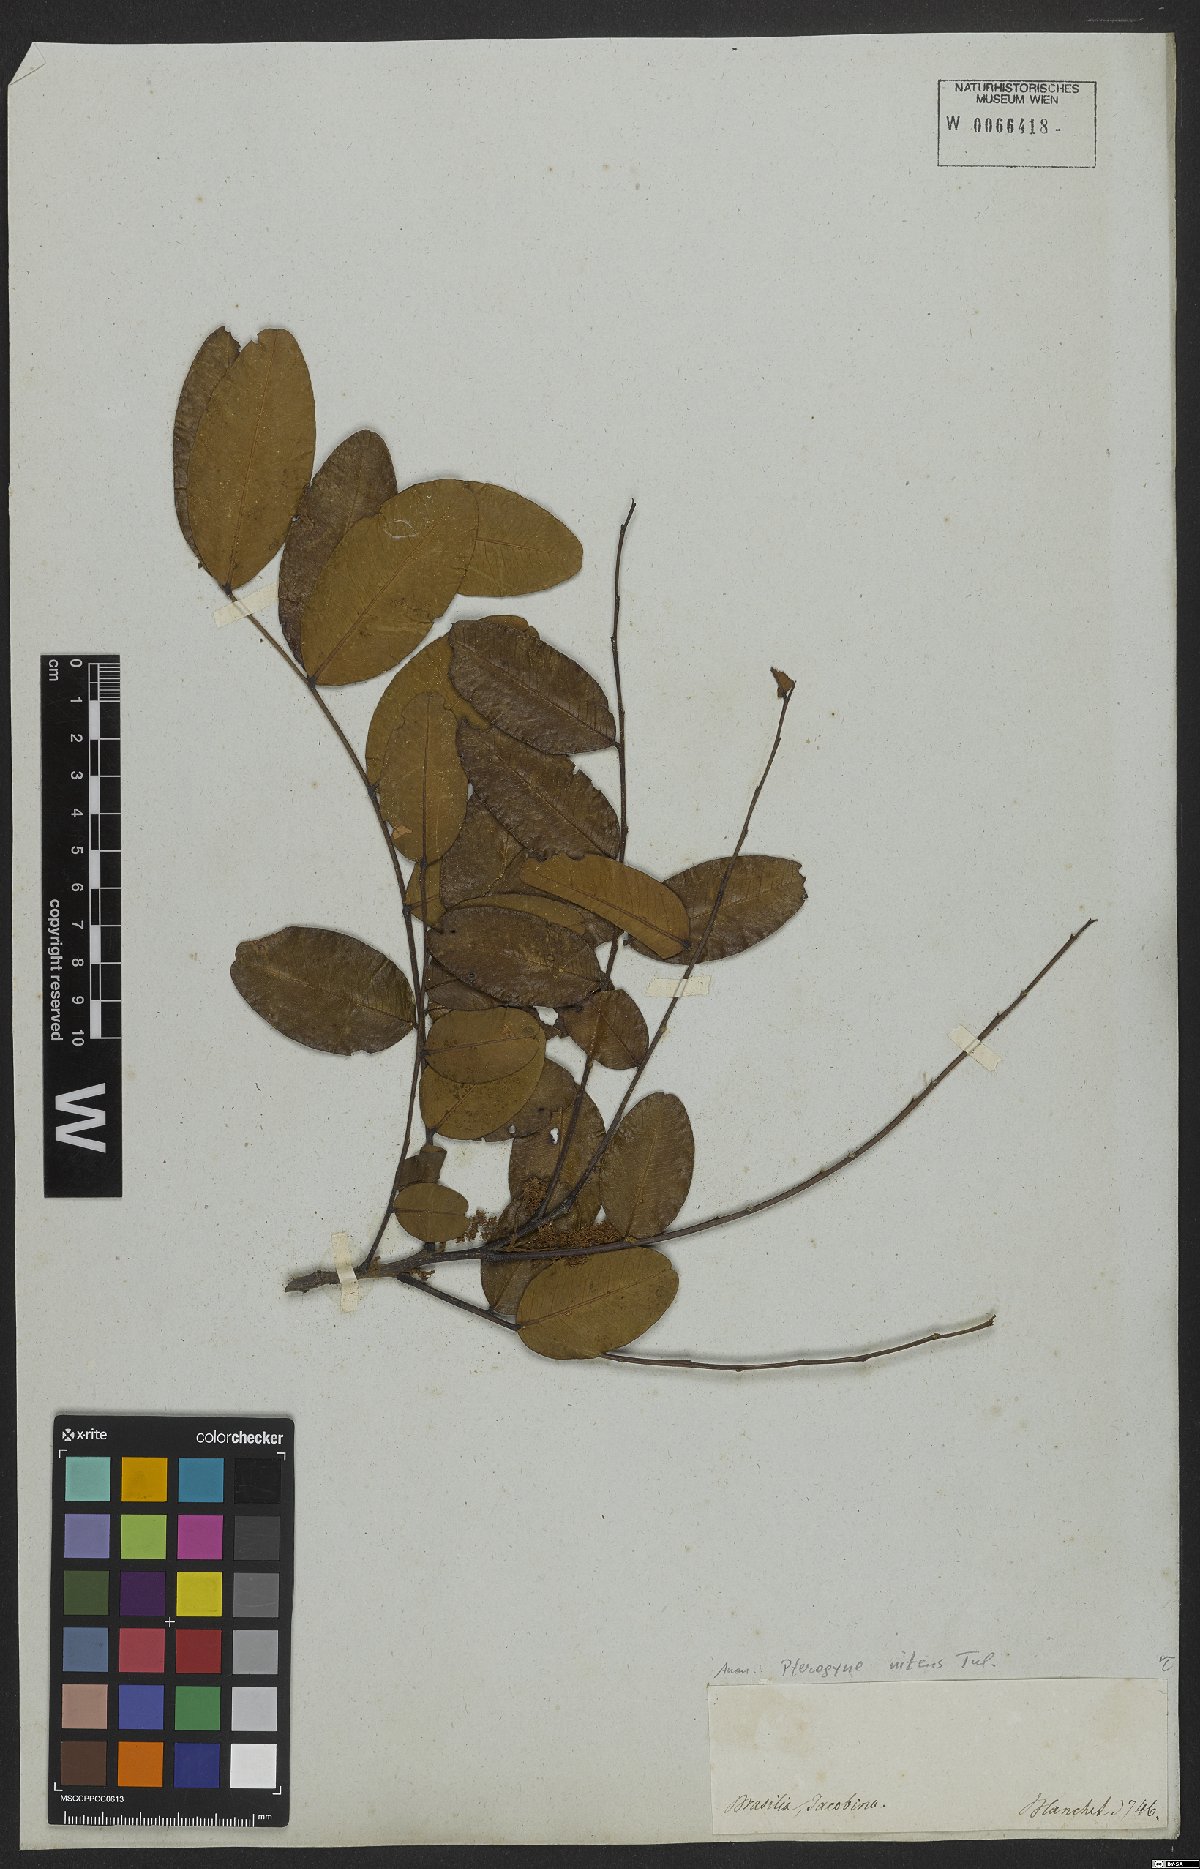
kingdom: Plantae
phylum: Tracheophyta
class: Magnoliopsida
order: Fabales
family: Fabaceae
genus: Pterogyne
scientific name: Pterogyne nitens
